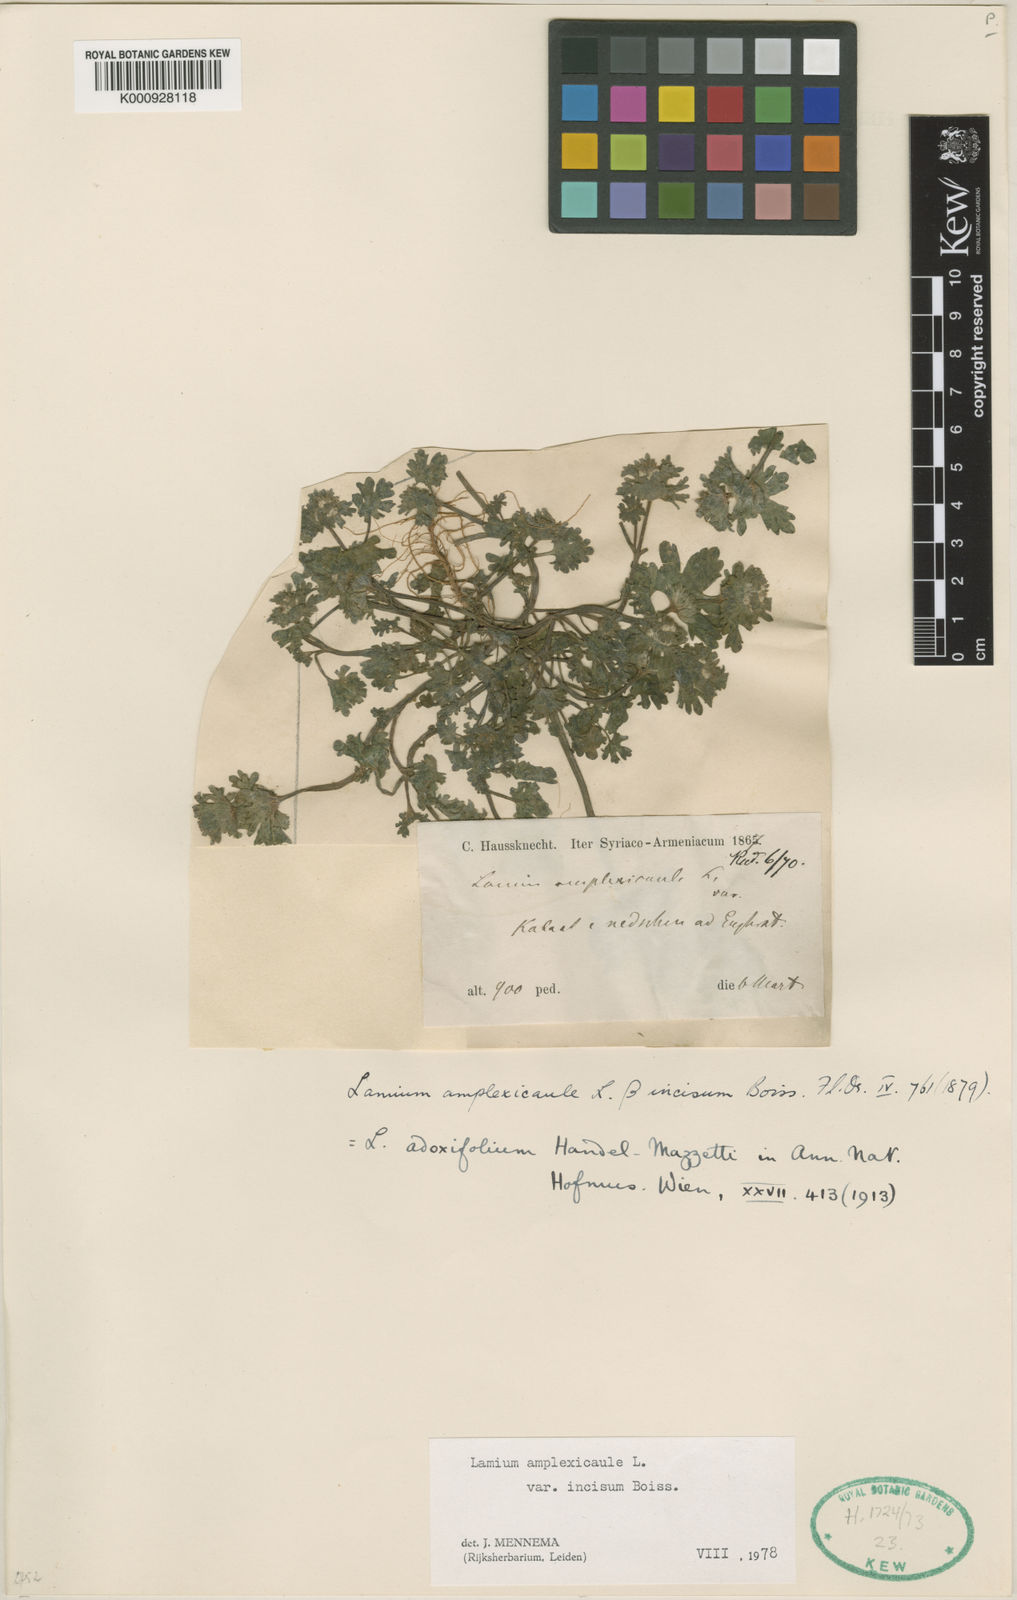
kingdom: Plantae
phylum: Tracheophyta
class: Magnoliopsida
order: Lamiales
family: Lamiaceae
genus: Lamium
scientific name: Lamium amplexicaule
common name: Henbit dead-nettle
